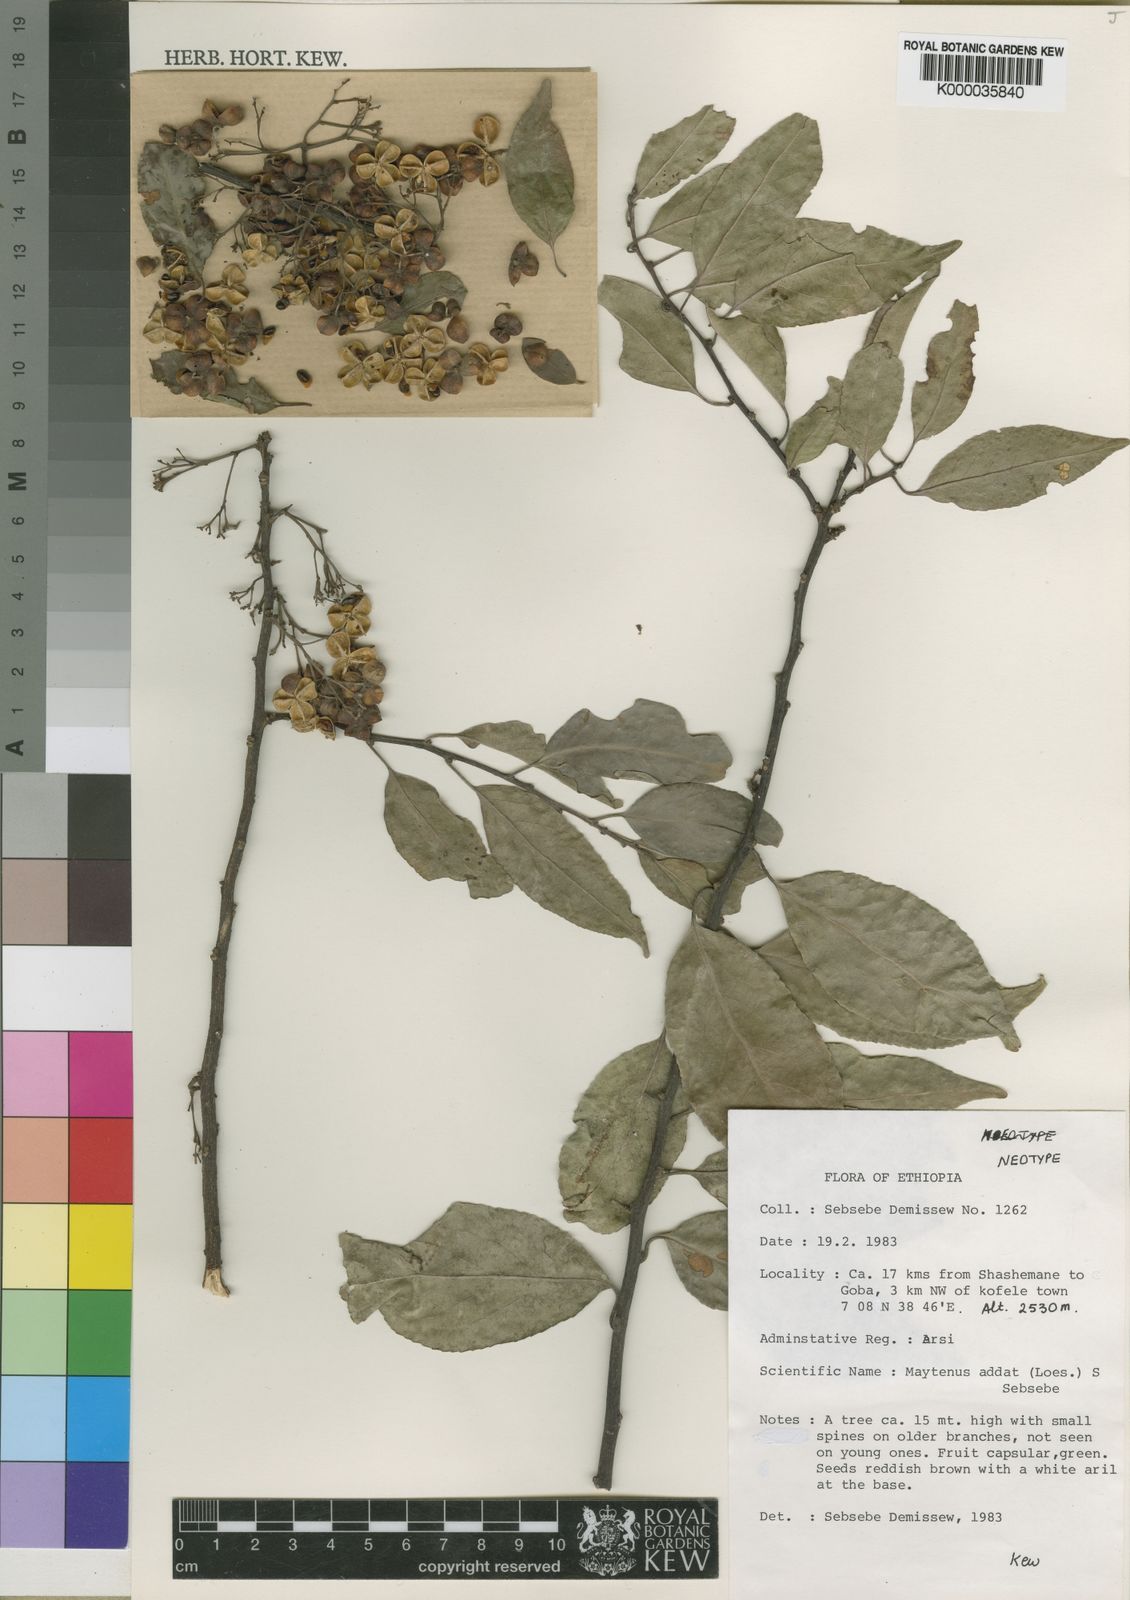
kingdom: Plantae
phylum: Tracheophyta
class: Magnoliopsida
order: Celastrales
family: Celastraceae
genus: Gymnosporia
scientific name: Gymnosporia addat
